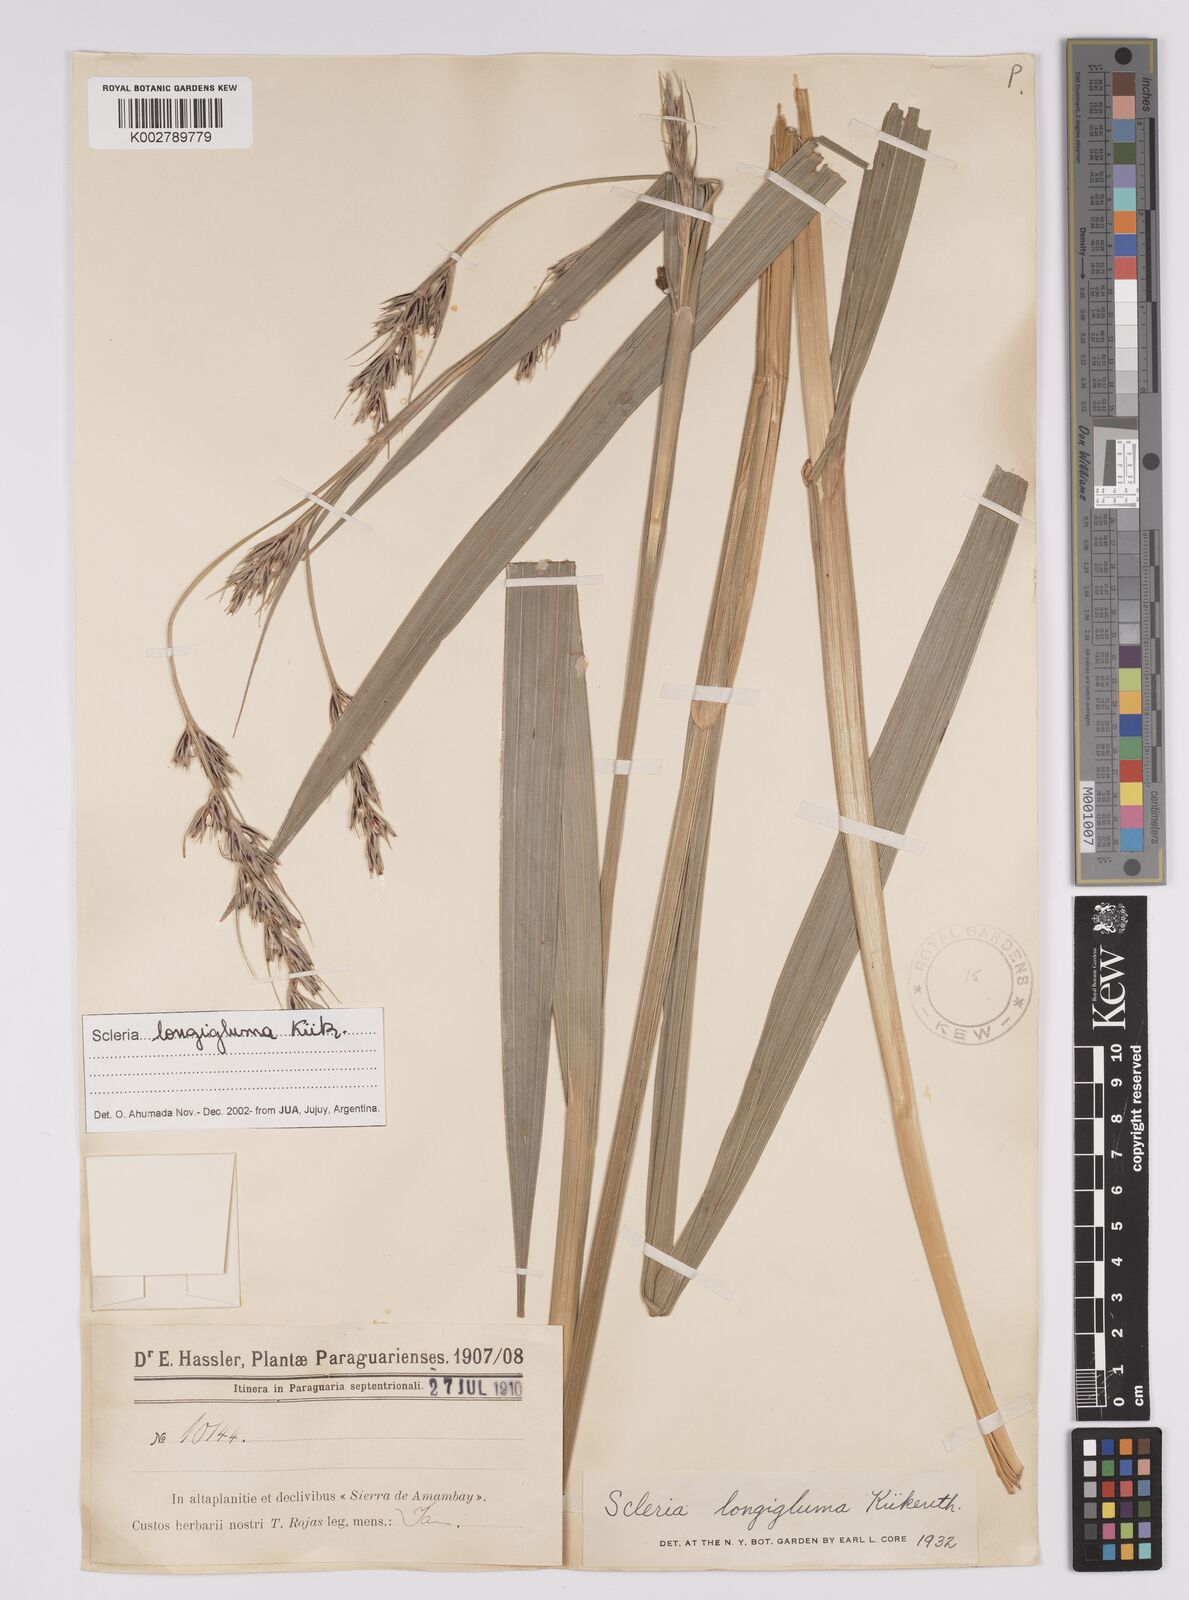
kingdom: Plantae
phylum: Tracheophyta
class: Liliopsida
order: Poales
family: Cyperaceae
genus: Scleria
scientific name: Scleria melanomphala
